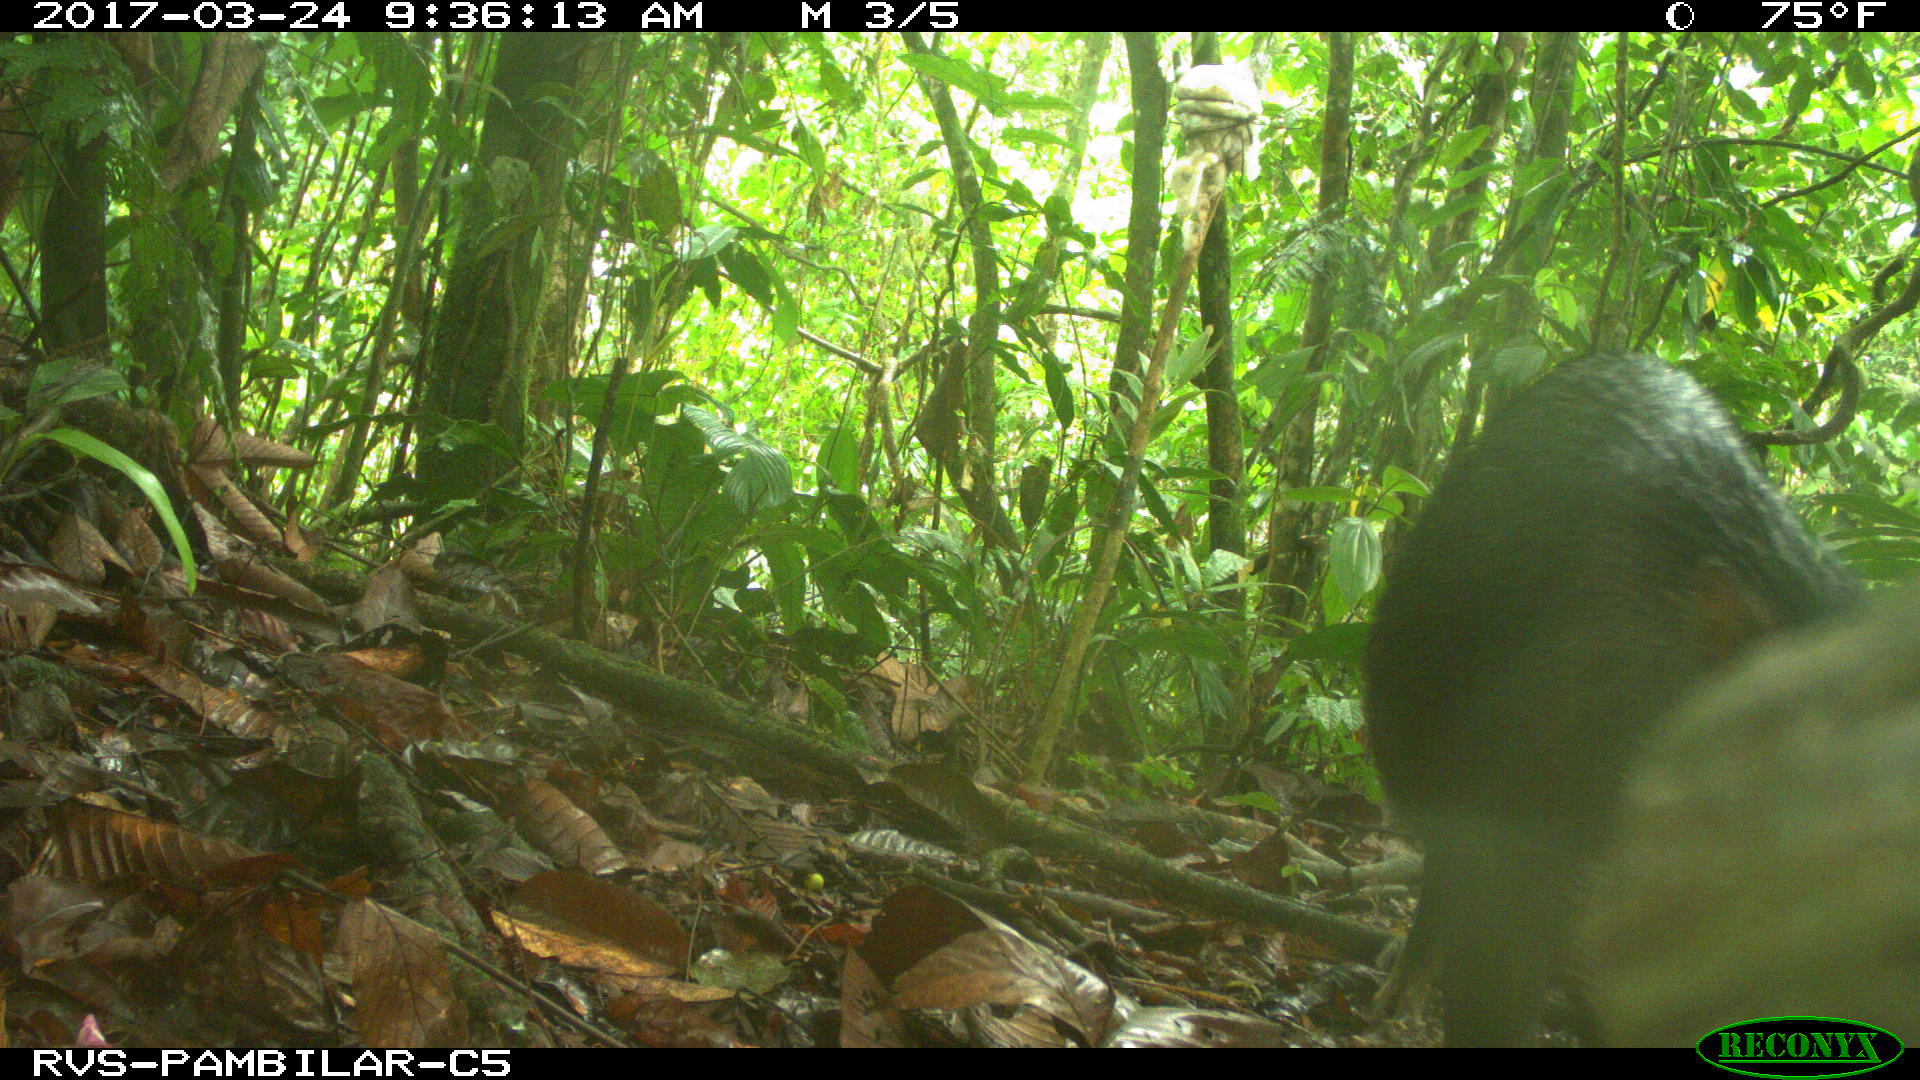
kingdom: Animalia
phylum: Chordata
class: Mammalia
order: Artiodactyla
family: Tayassuidae
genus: Tayassu
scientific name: Tayassu pecari
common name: White-lipped peccary
